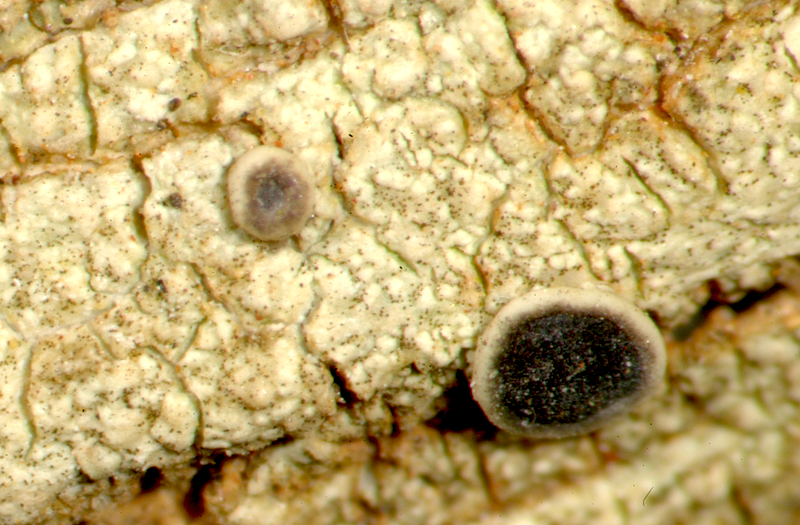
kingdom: Fungi
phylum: Ascomycota
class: Lecanoromycetes
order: Teloschistales
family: Teloschistaceae
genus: Caloplaca
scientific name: Caloplaca
